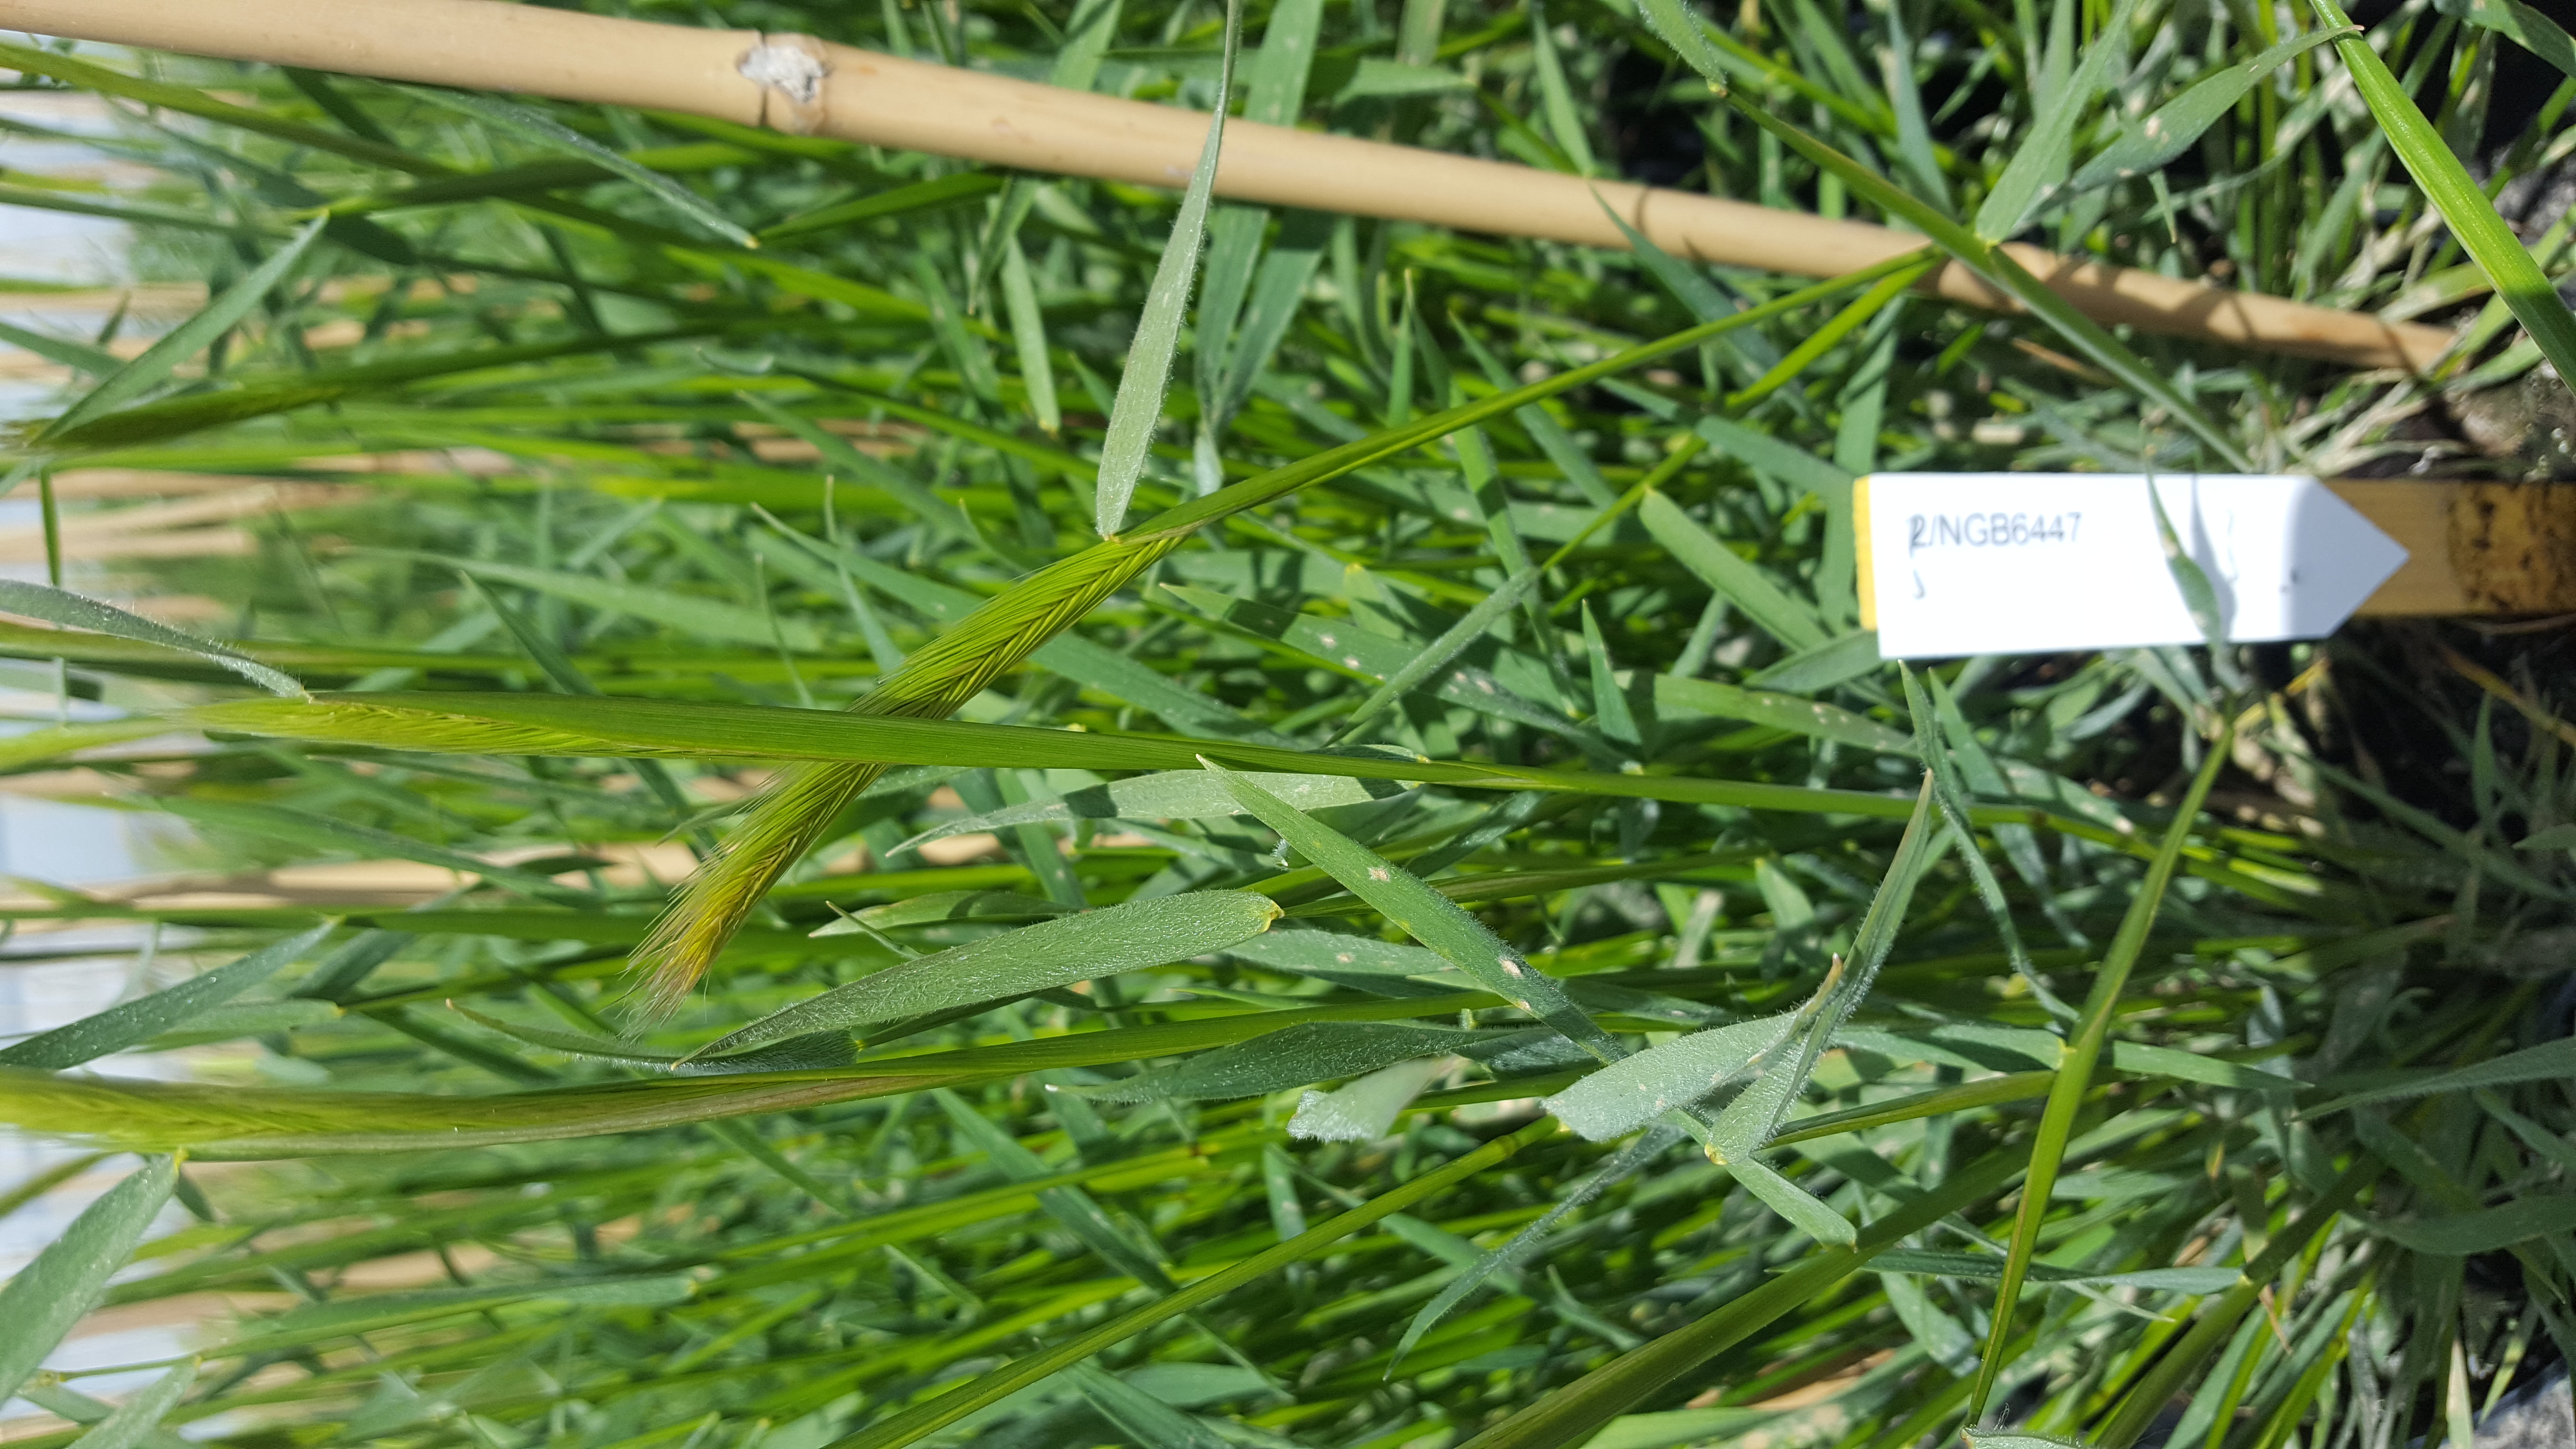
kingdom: Plantae
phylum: Tracheophyta
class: Liliopsida
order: Poales
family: Poaceae
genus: Hordeum
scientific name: Hordeum californicum
